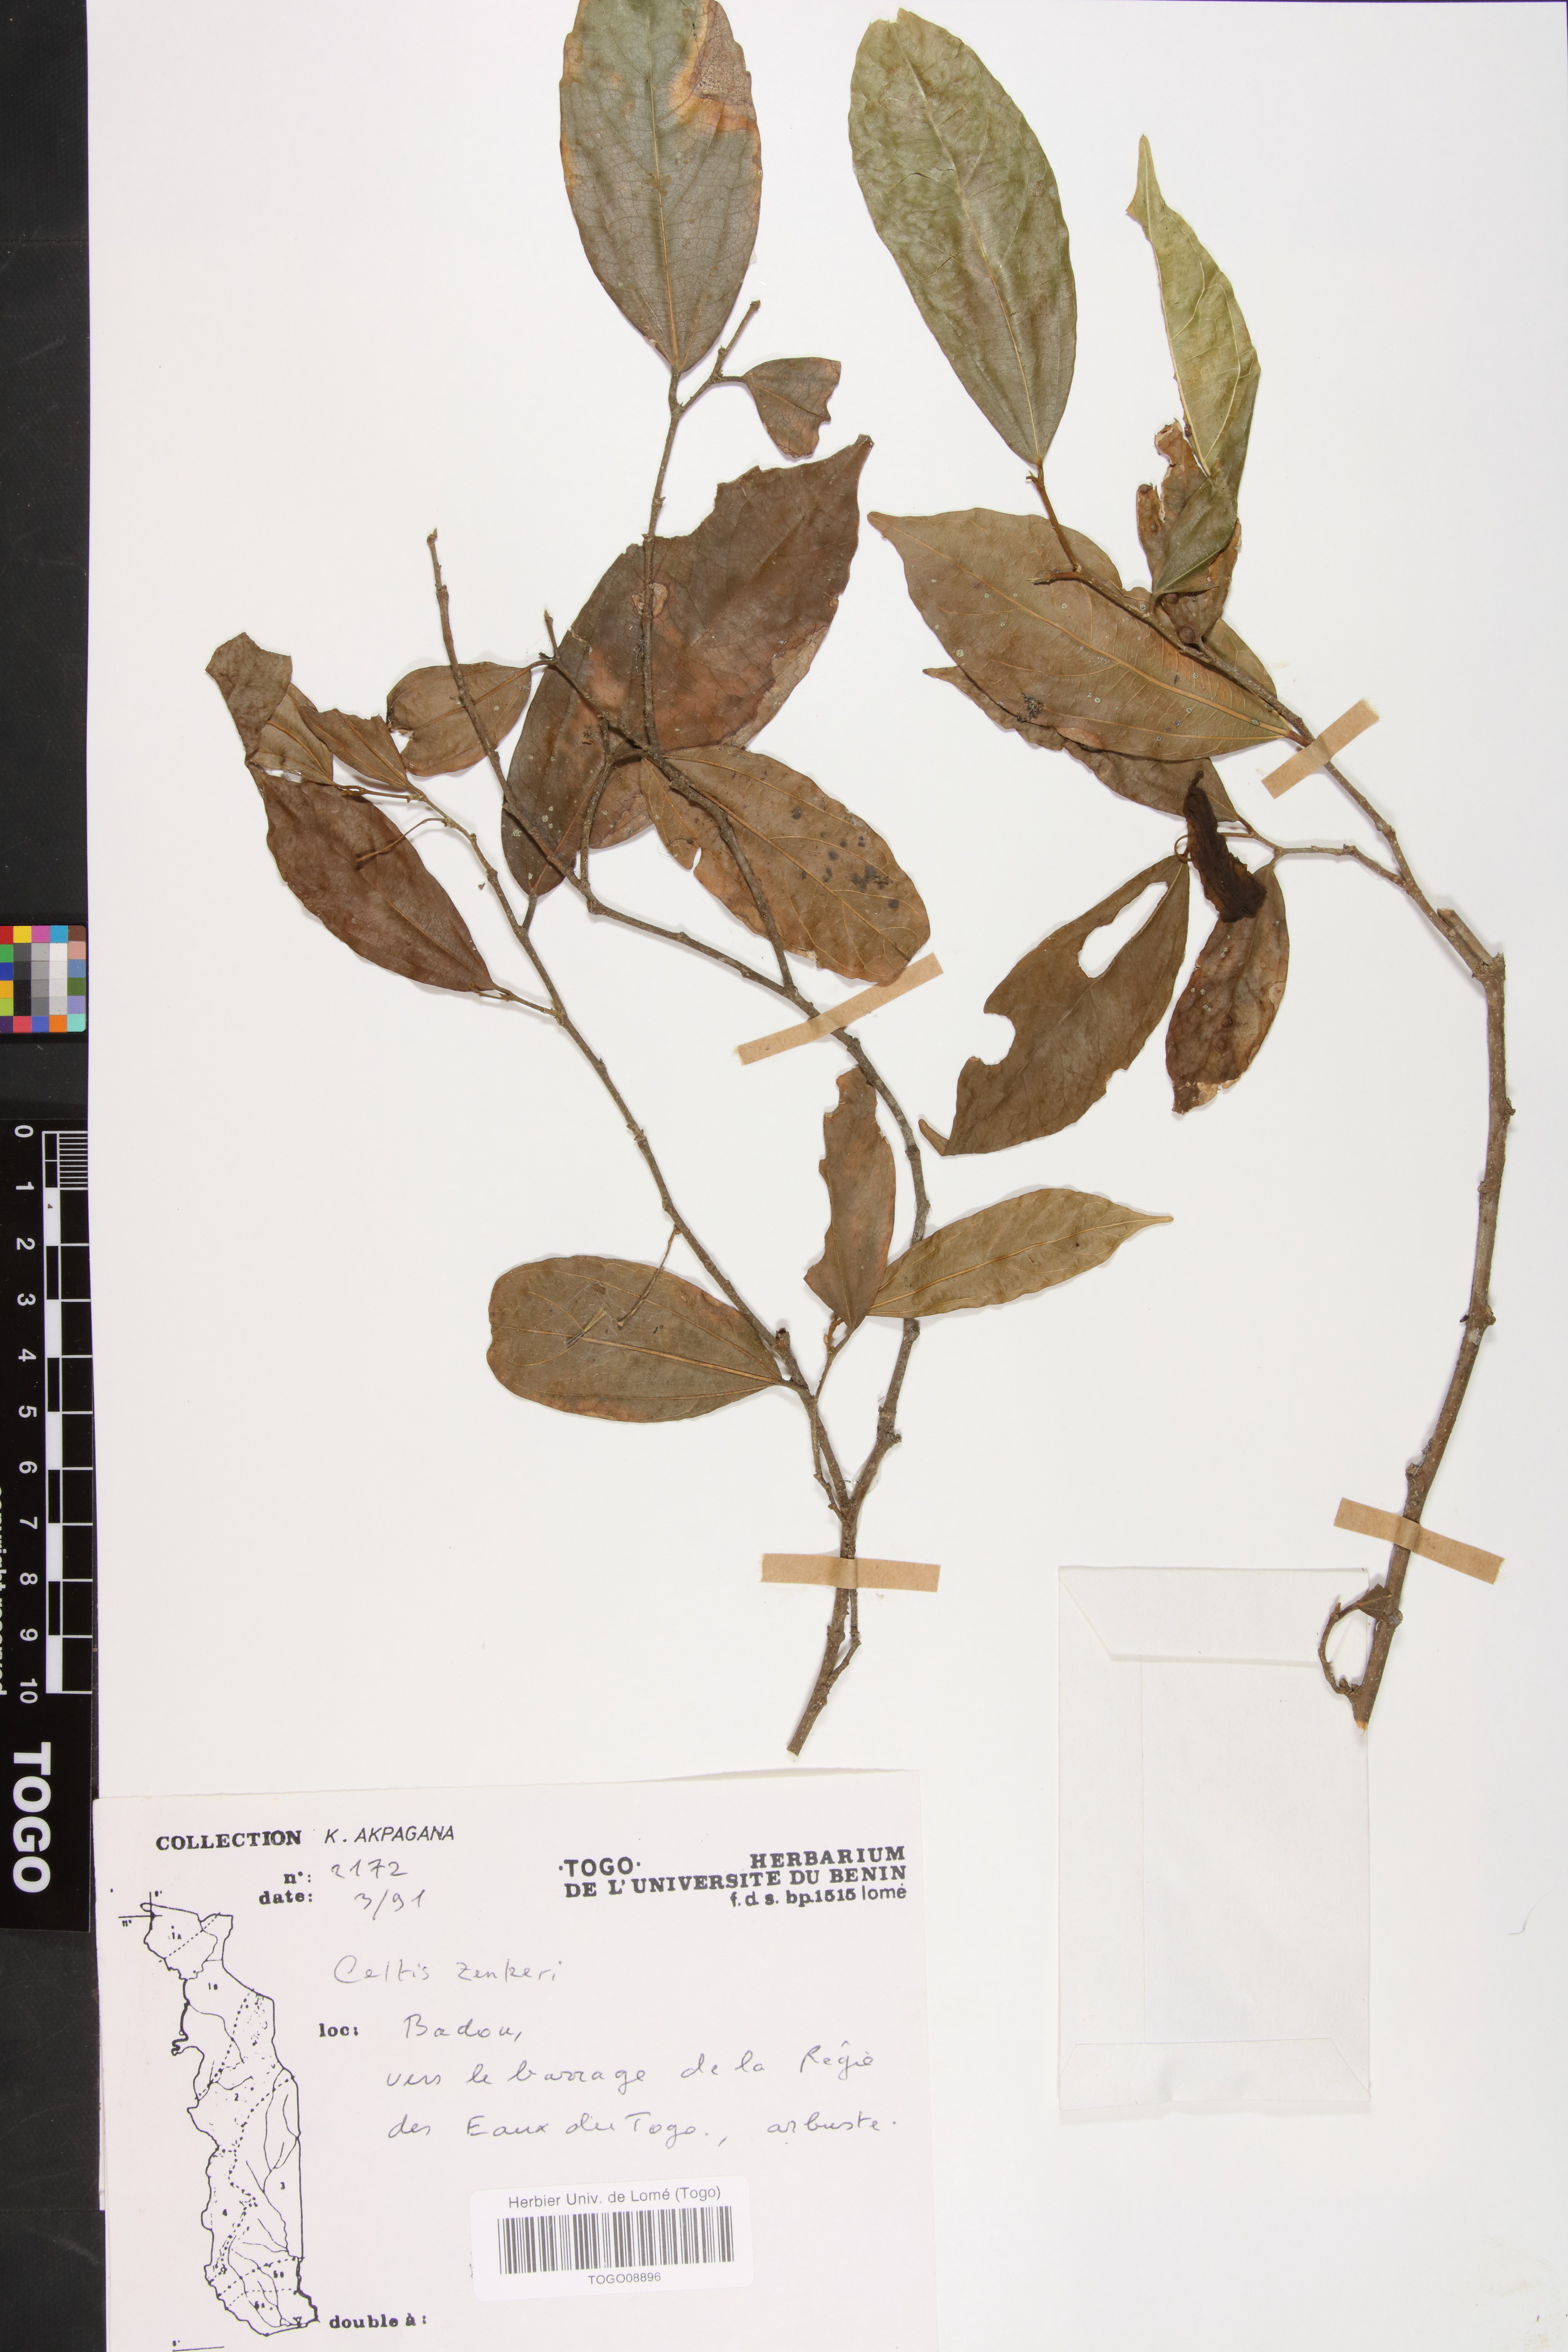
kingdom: Plantae
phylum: Tracheophyta
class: Magnoliopsida
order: Rosales
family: Cannabaceae
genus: Celtis
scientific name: Celtis zenkeri
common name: African celtis
